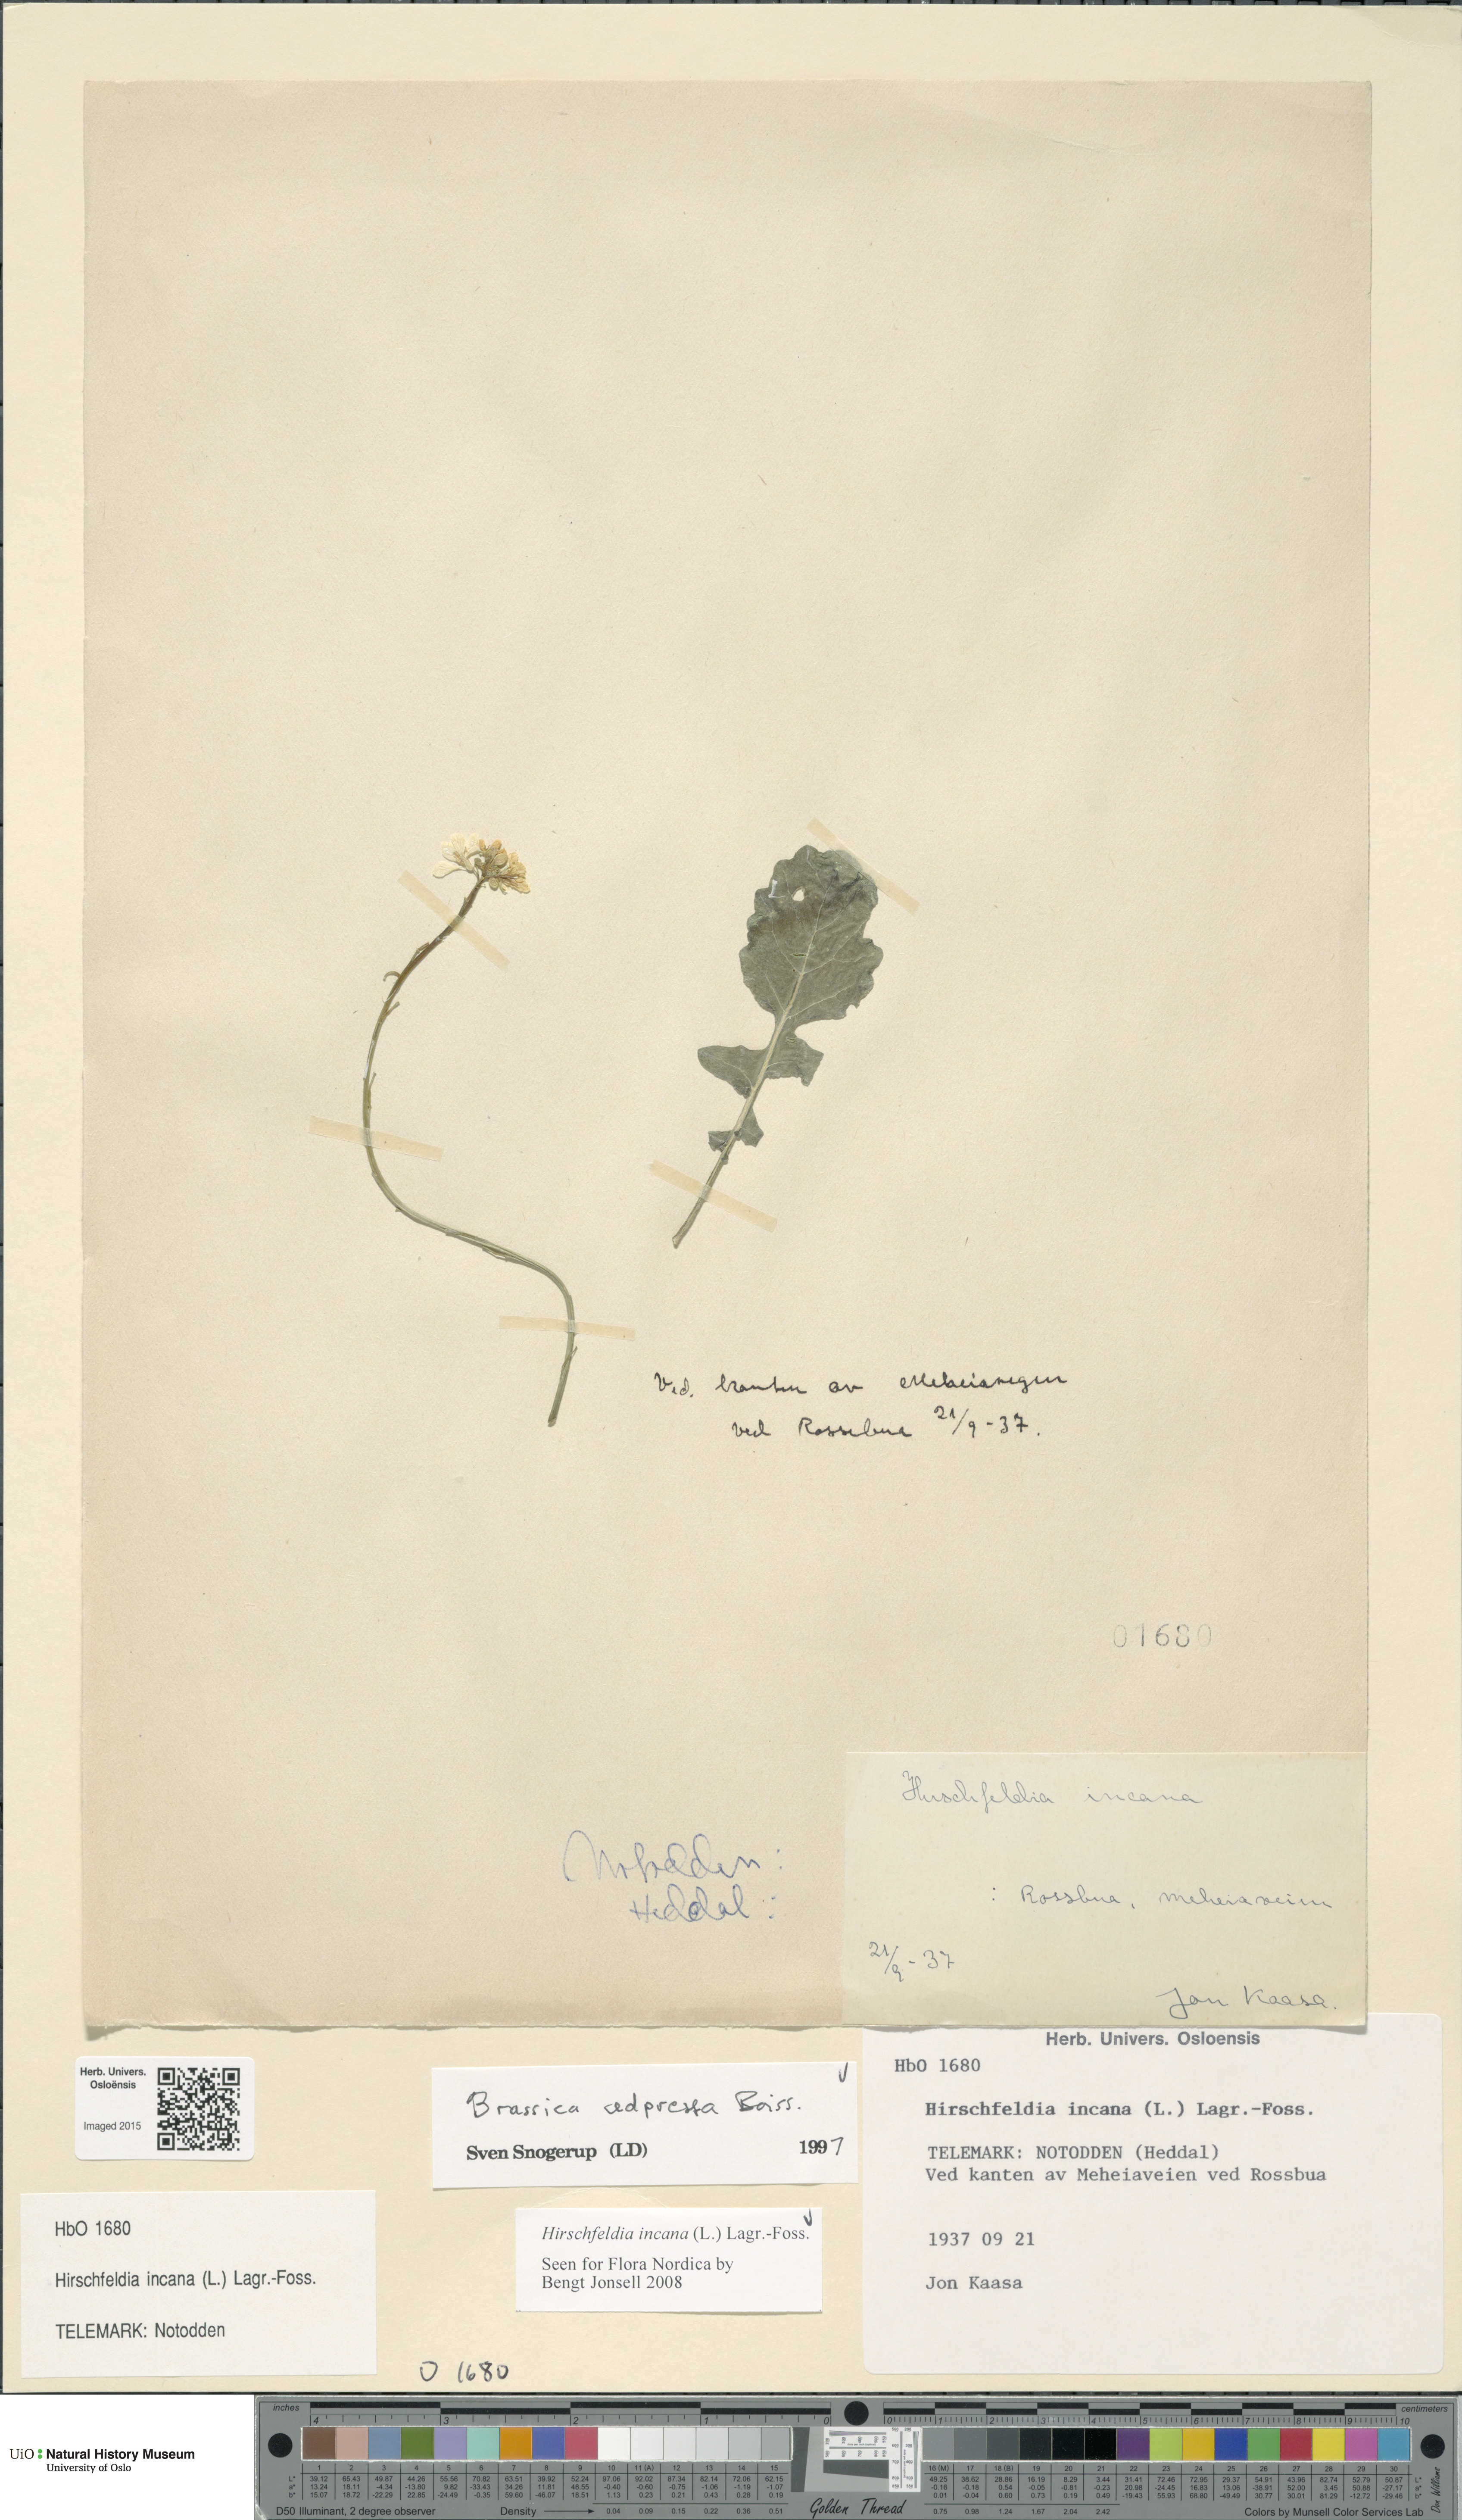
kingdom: Plantae
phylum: Tracheophyta
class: Magnoliopsida
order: Brassicales
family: Brassicaceae
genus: Hirschfeldia
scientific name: Hirschfeldia incana
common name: Hoary mustard
